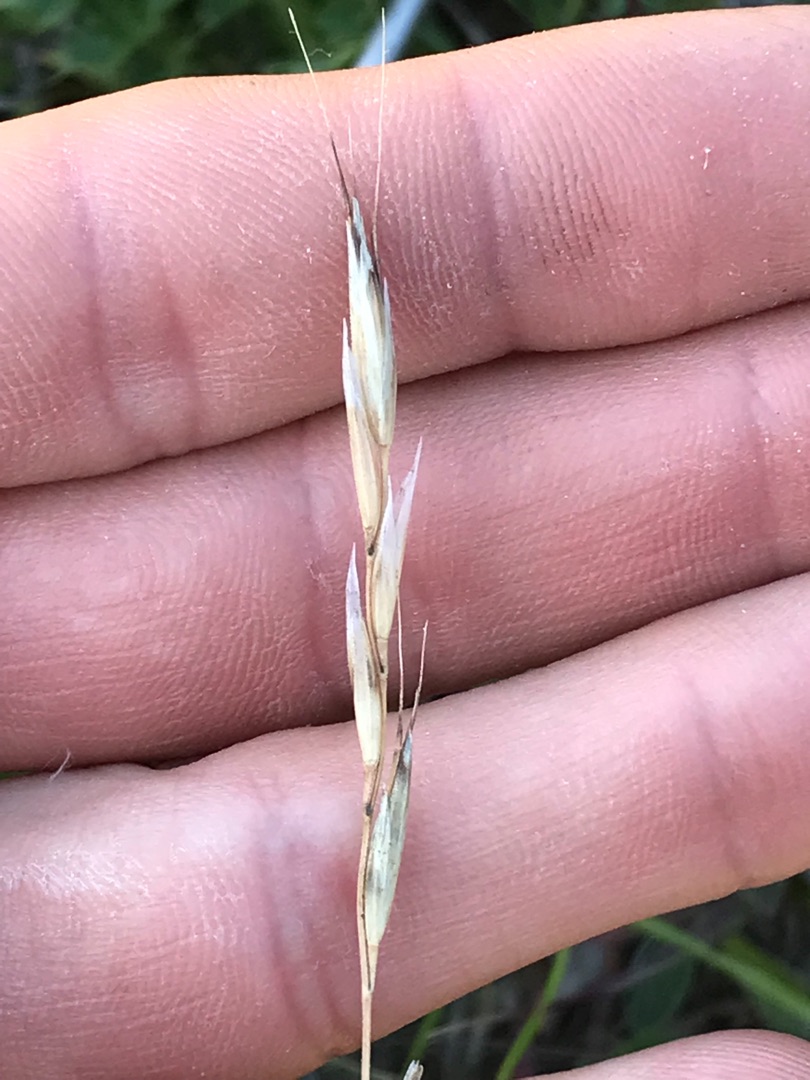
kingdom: Plantae
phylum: Tracheophyta
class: Liliopsida
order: Poales
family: Poaceae
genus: Helictochloa
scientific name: Helictochloa pratensis
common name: Eng-havre
